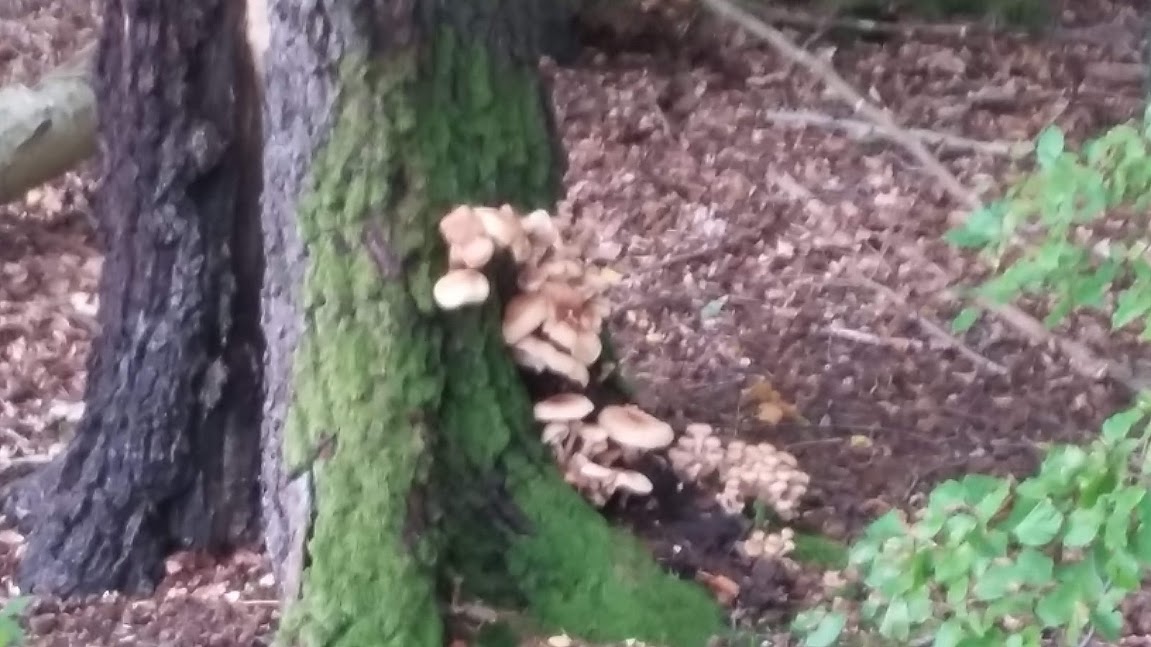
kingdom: Fungi
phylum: Basidiomycota
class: Agaricomycetes
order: Agaricales
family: Physalacriaceae
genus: Armillaria
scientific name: Armillaria
